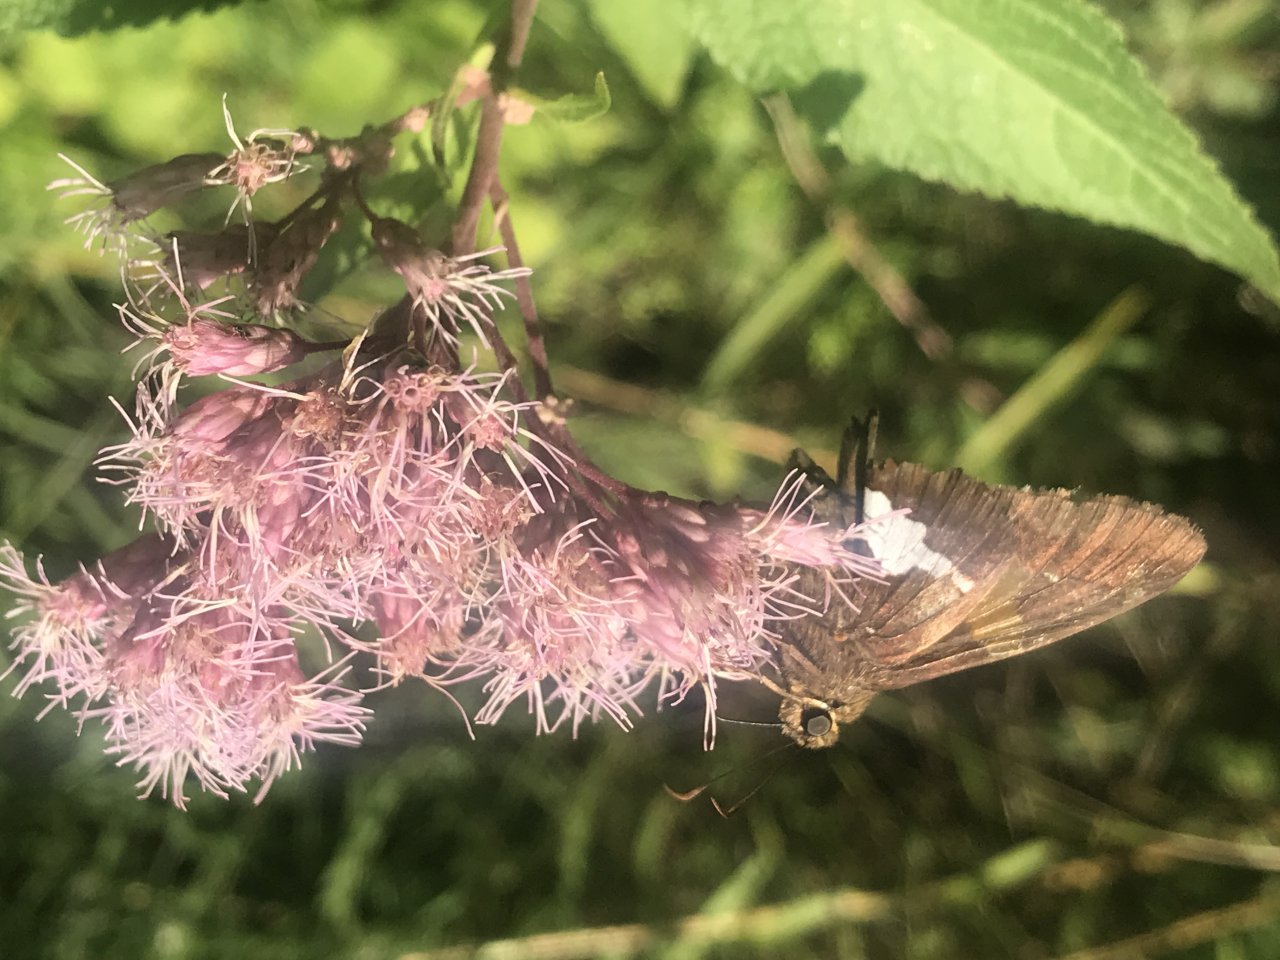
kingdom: Animalia
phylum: Arthropoda
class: Insecta
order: Lepidoptera
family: Hesperiidae
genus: Epargyreus
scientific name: Epargyreus clarus
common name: Silver-spotted Skipper
